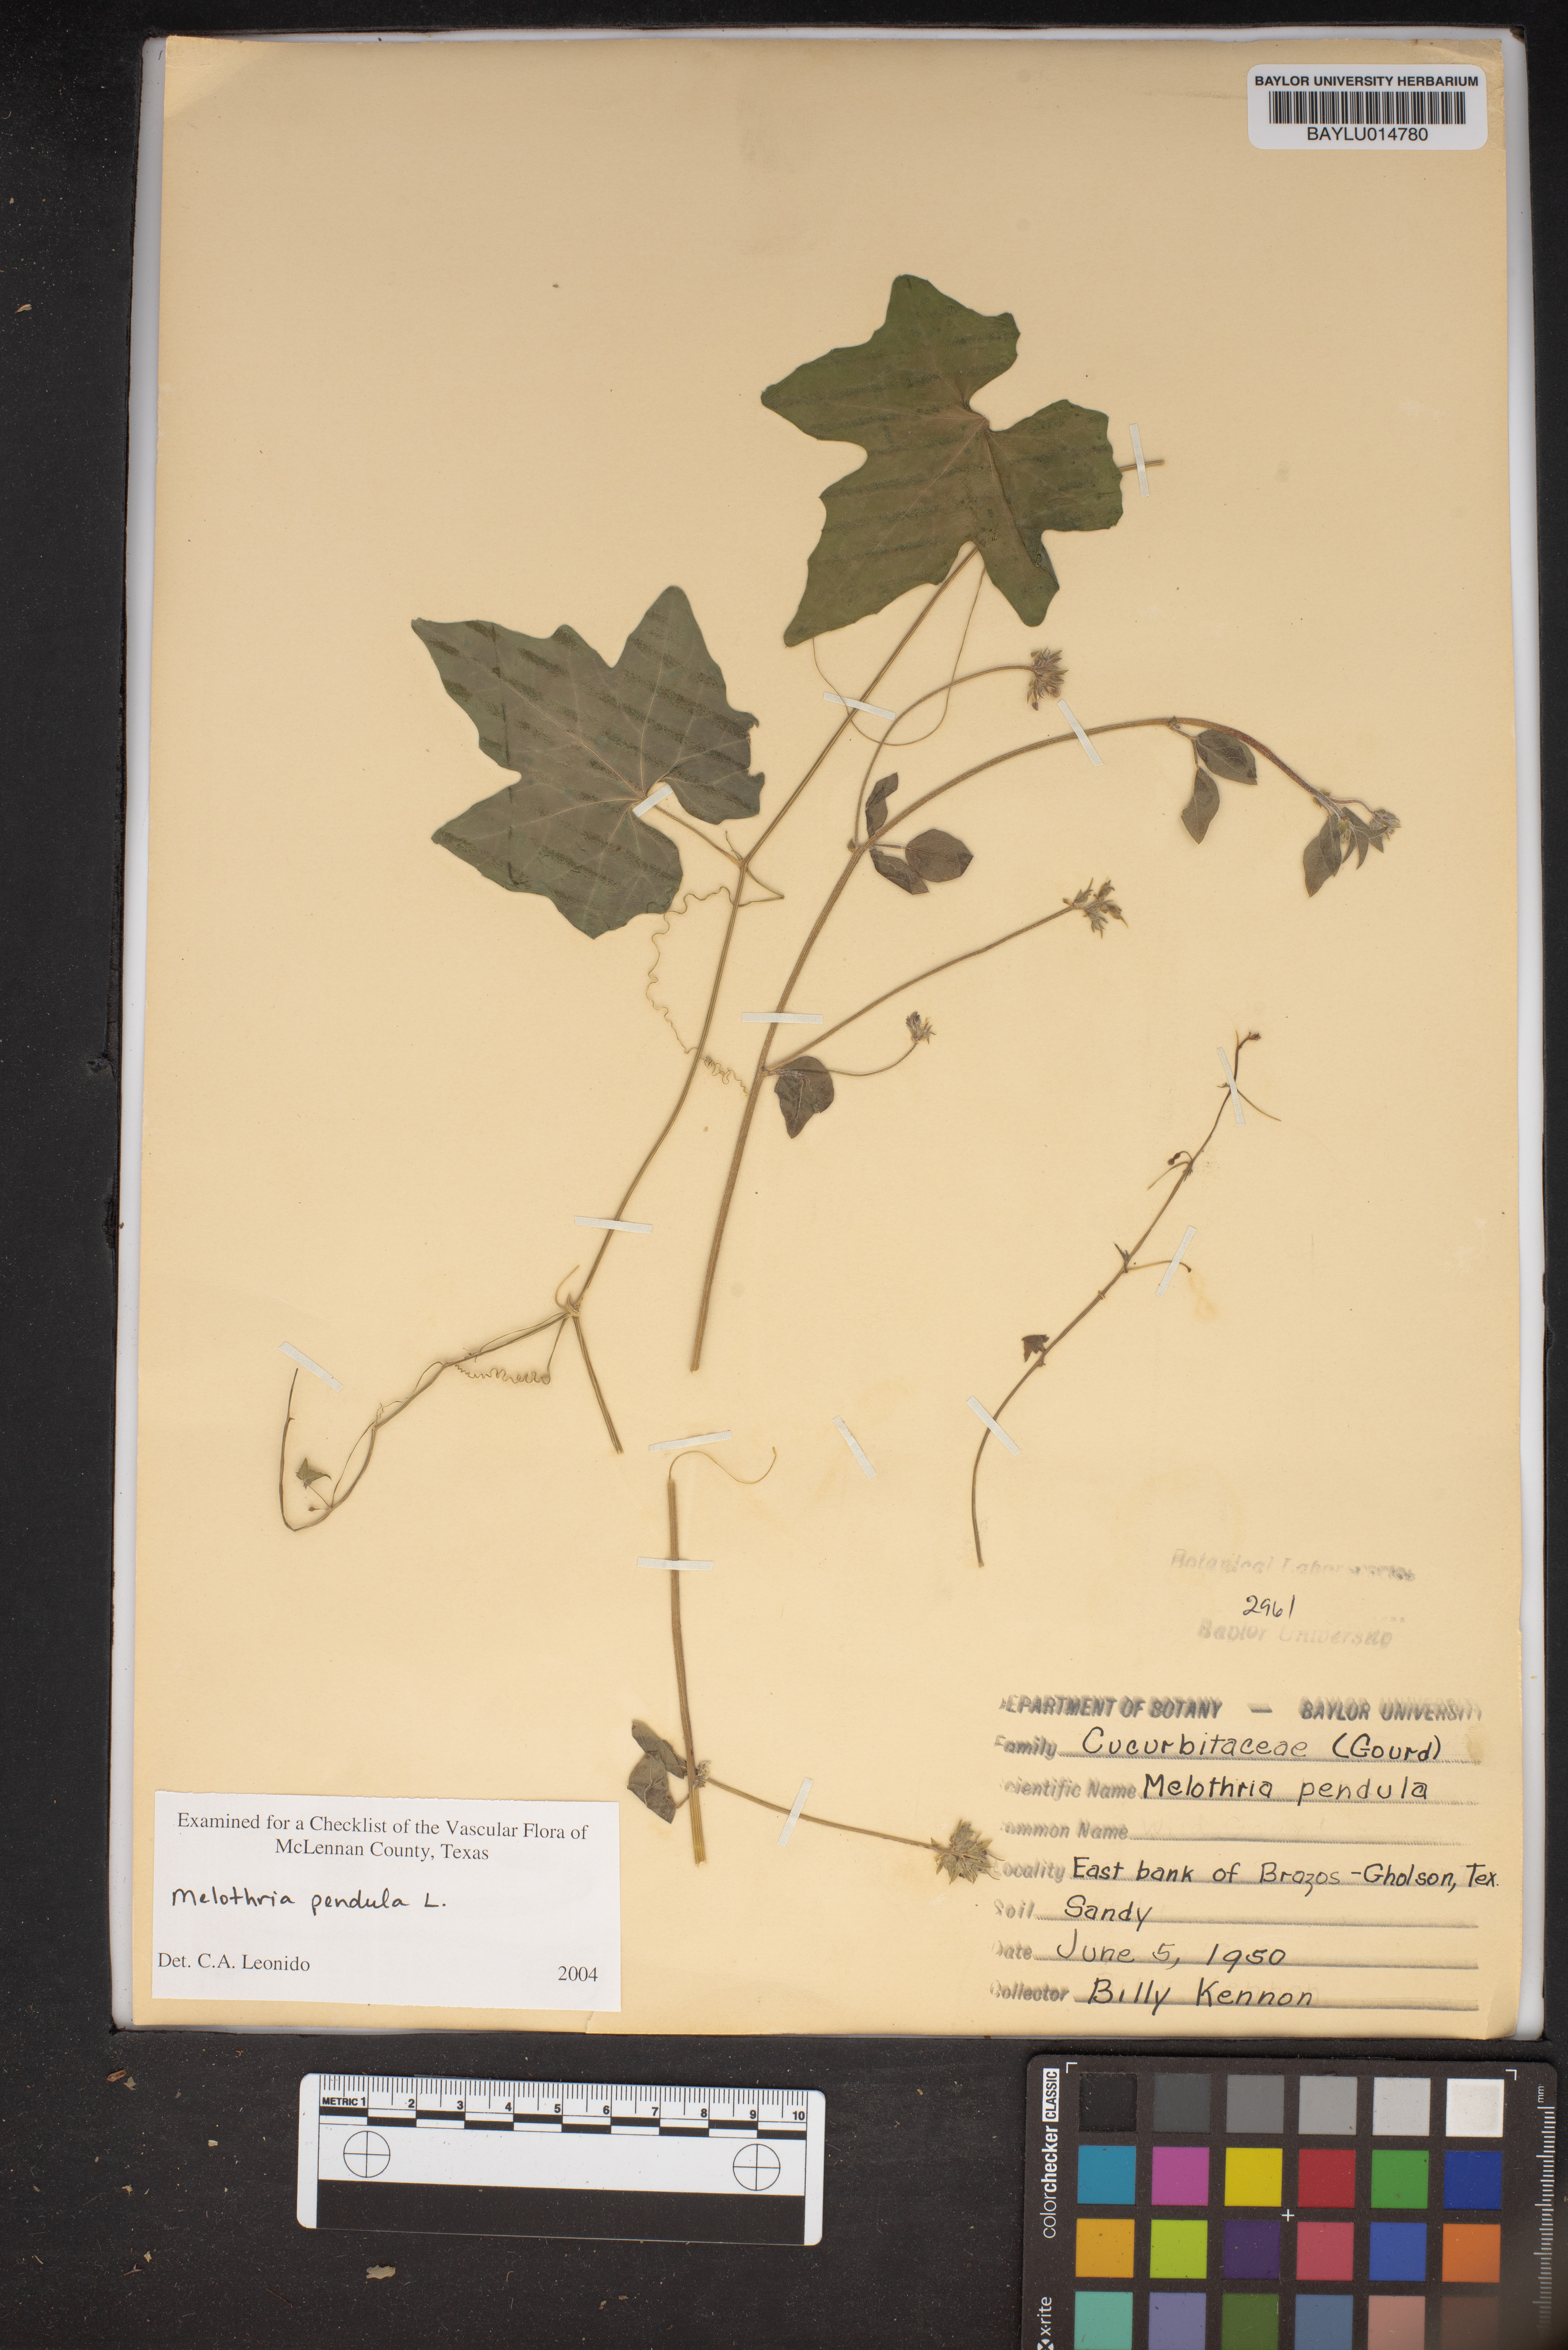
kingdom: Plantae
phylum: Tracheophyta
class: Magnoliopsida
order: Cucurbitales
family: Cucurbitaceae
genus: Melothria
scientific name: Melothria pendula
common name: Creeping-cucumber
